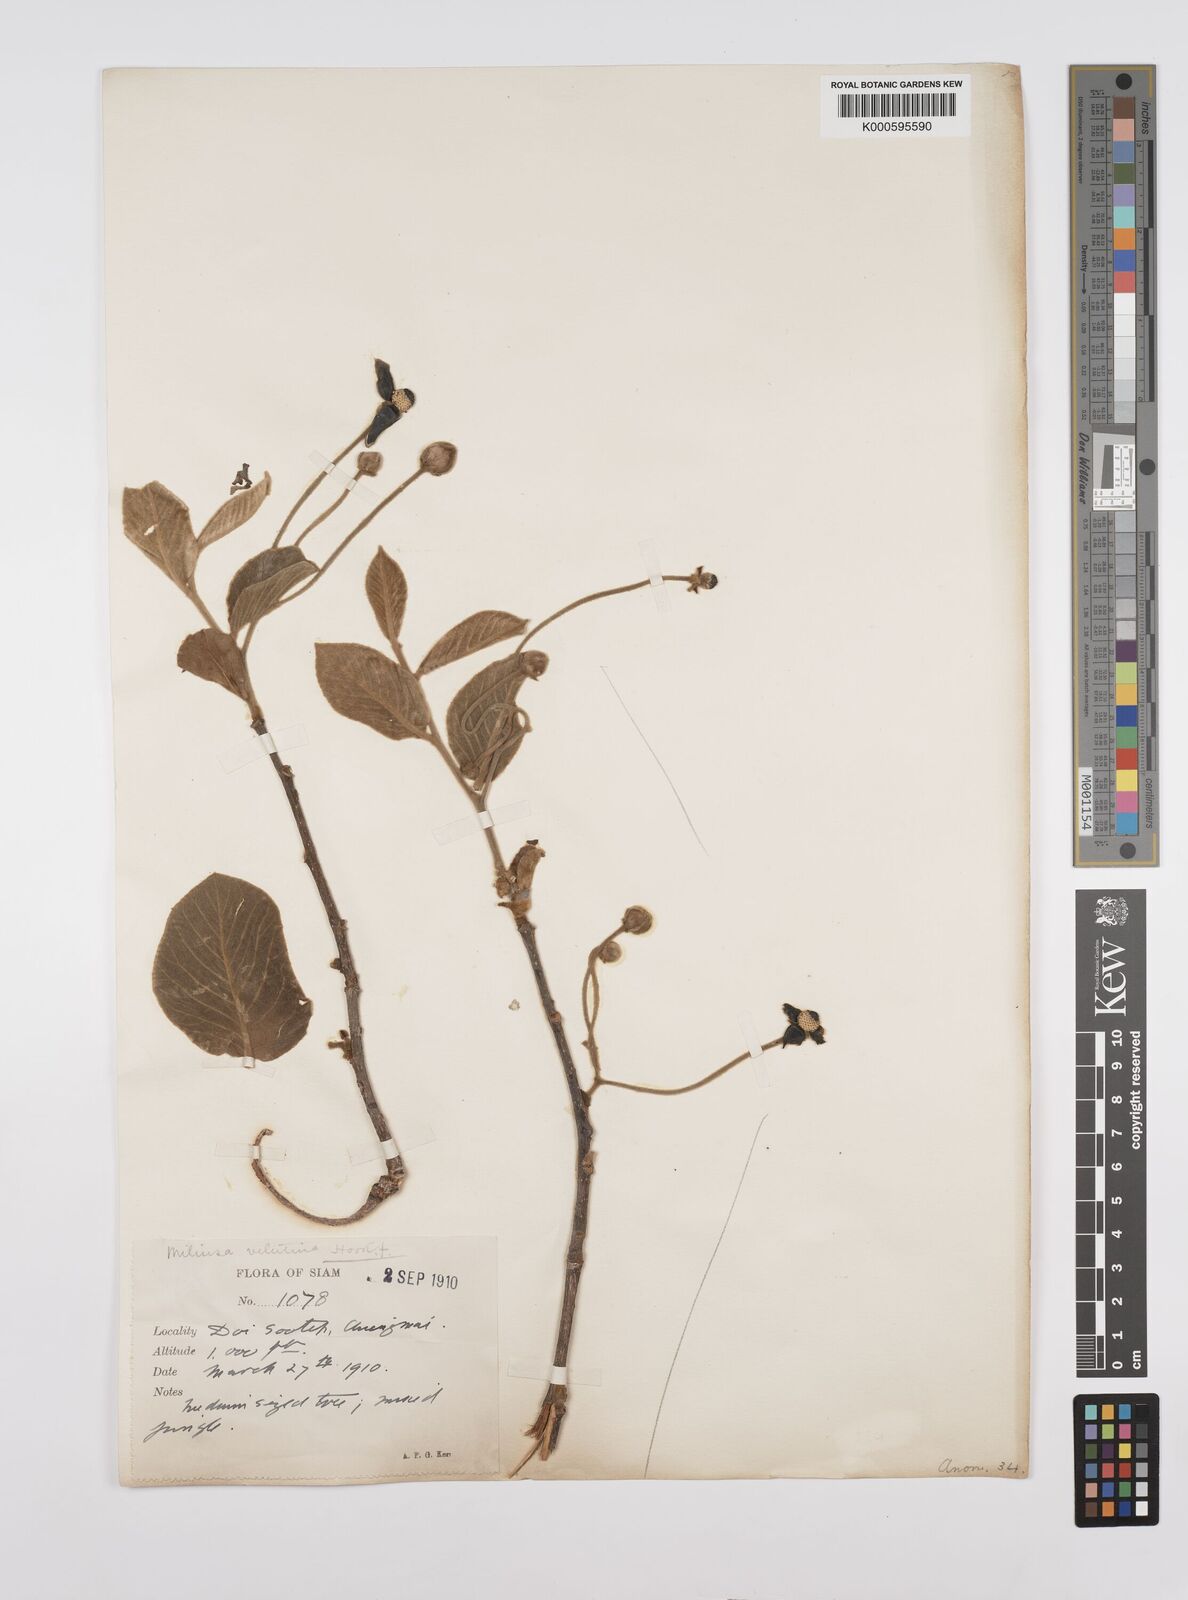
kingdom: Plantae
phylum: Tracheophyta
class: Magnoliopsida
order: Magnoliales
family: Annonaceae
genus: Miliusa
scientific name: Miliusa velutina
